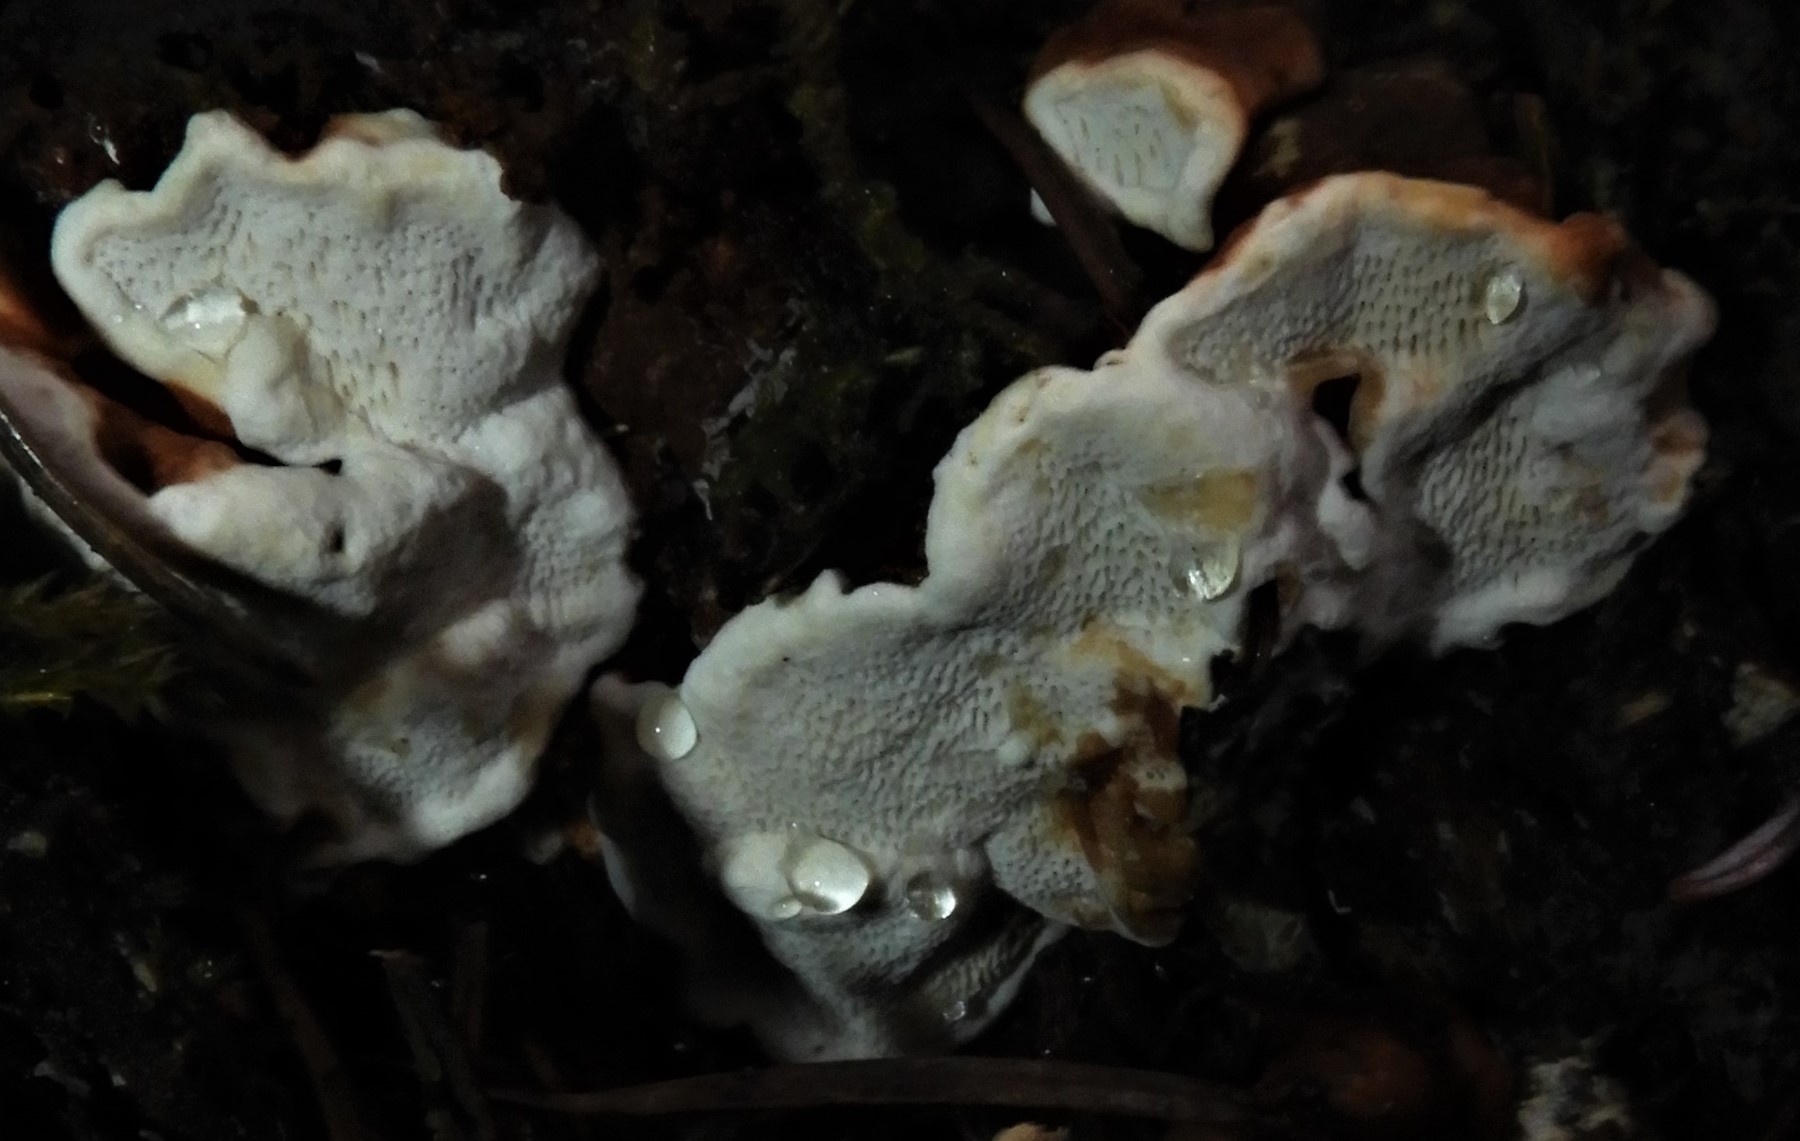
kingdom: Fungi
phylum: Basidiomycota
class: Agaricomycetes
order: Russulales
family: Bondarzewiaceae
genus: Heterobasidion
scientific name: Heterobasidion annosum
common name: almindelig rodfordærver
